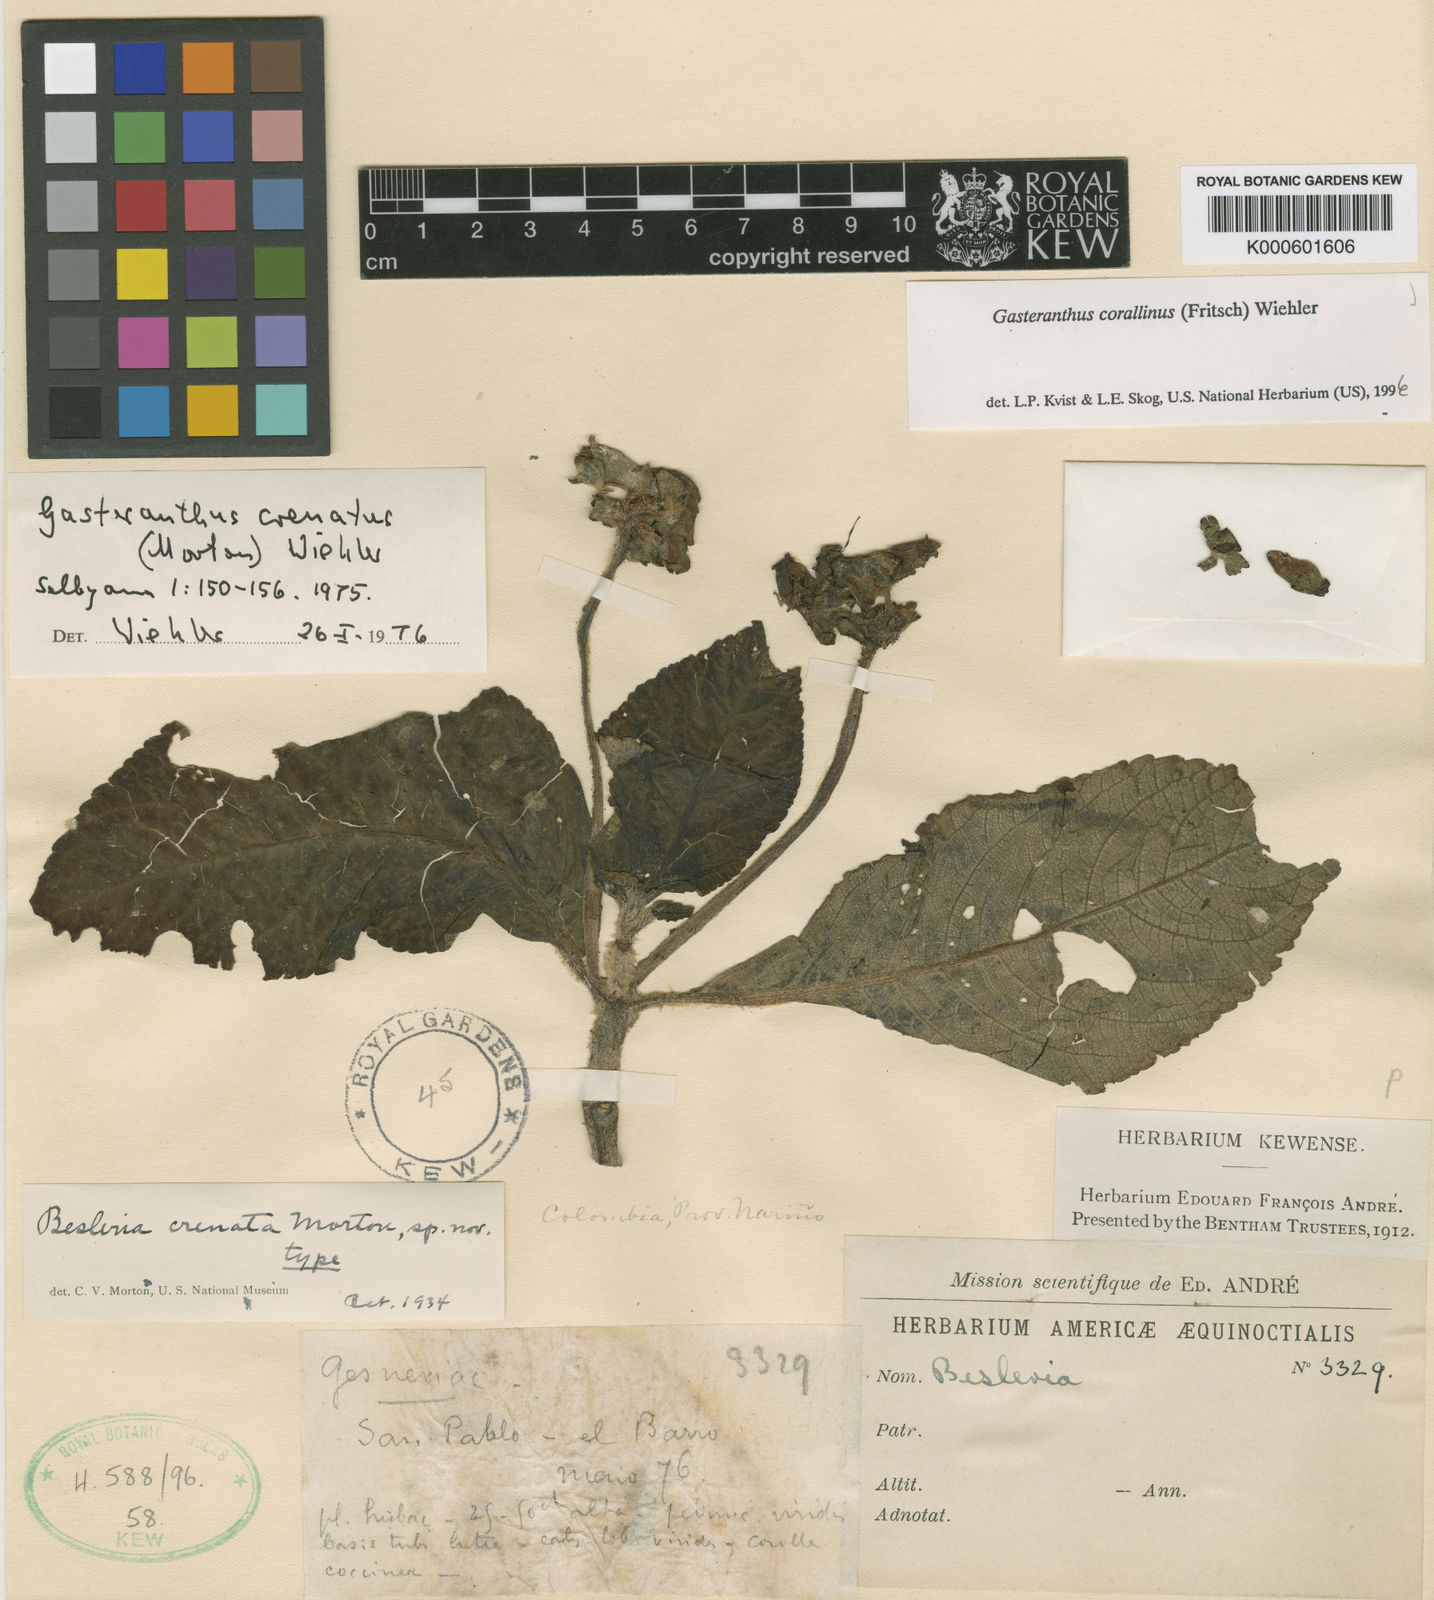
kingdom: Plantae
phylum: Tracheophyta
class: Magnoliopsida
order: Lamiales
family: Gesneriaceae
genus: Gasteranthus
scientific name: Gasteranthus corallinus
